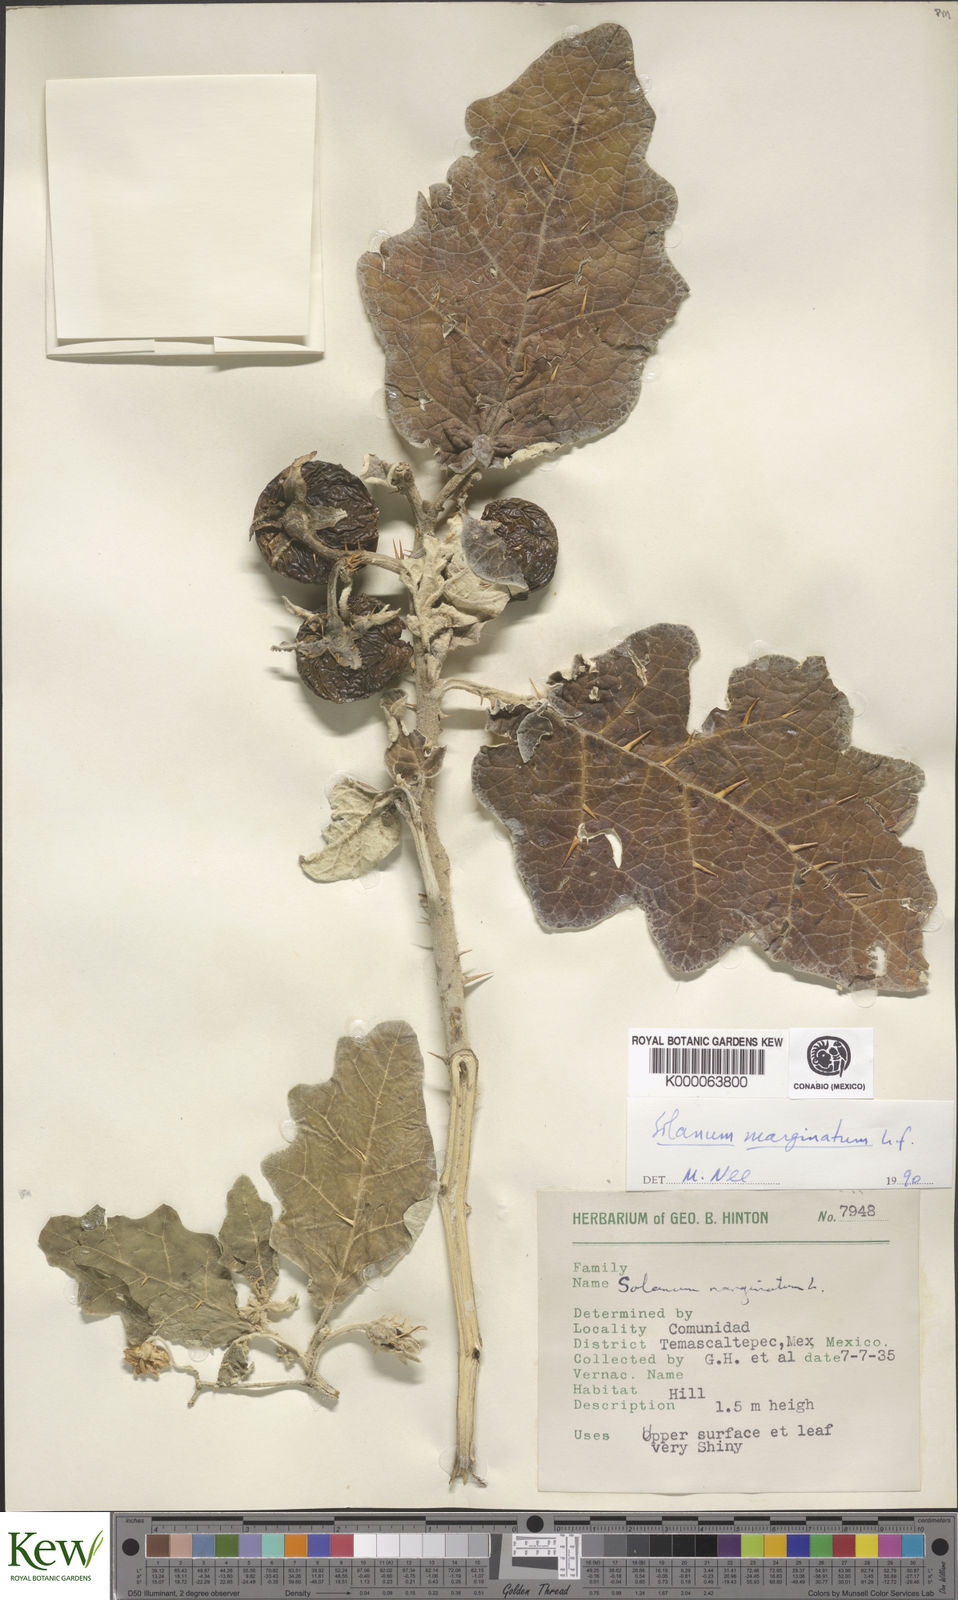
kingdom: Plantae
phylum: Tracheophyta
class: Magnoliopsida
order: Solanales
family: Solanaceae
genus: Solanum
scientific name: Solanum marginatum
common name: Purple african nightshade
